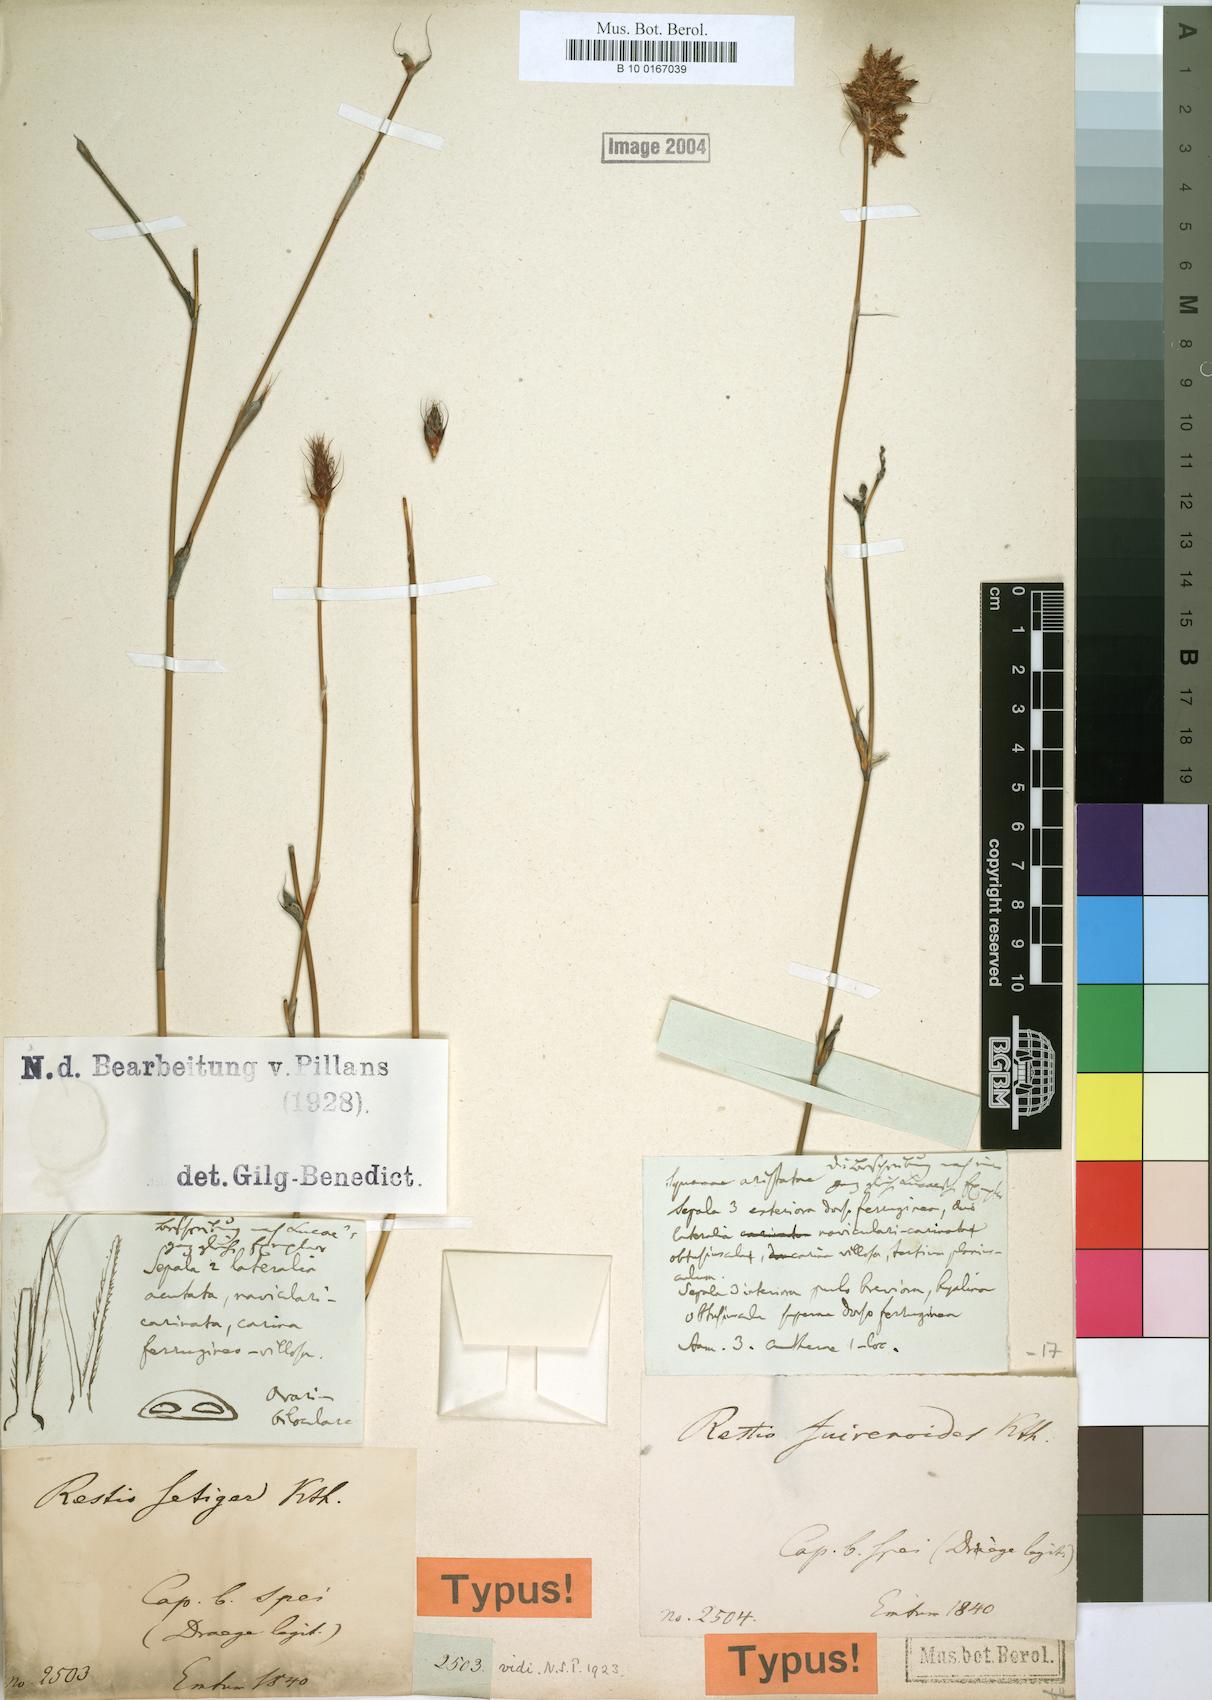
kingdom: Plantae
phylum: Tracheophyta
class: Liliopsida
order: Poales
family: Restionaceae
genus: Restio
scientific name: Restio setiger
